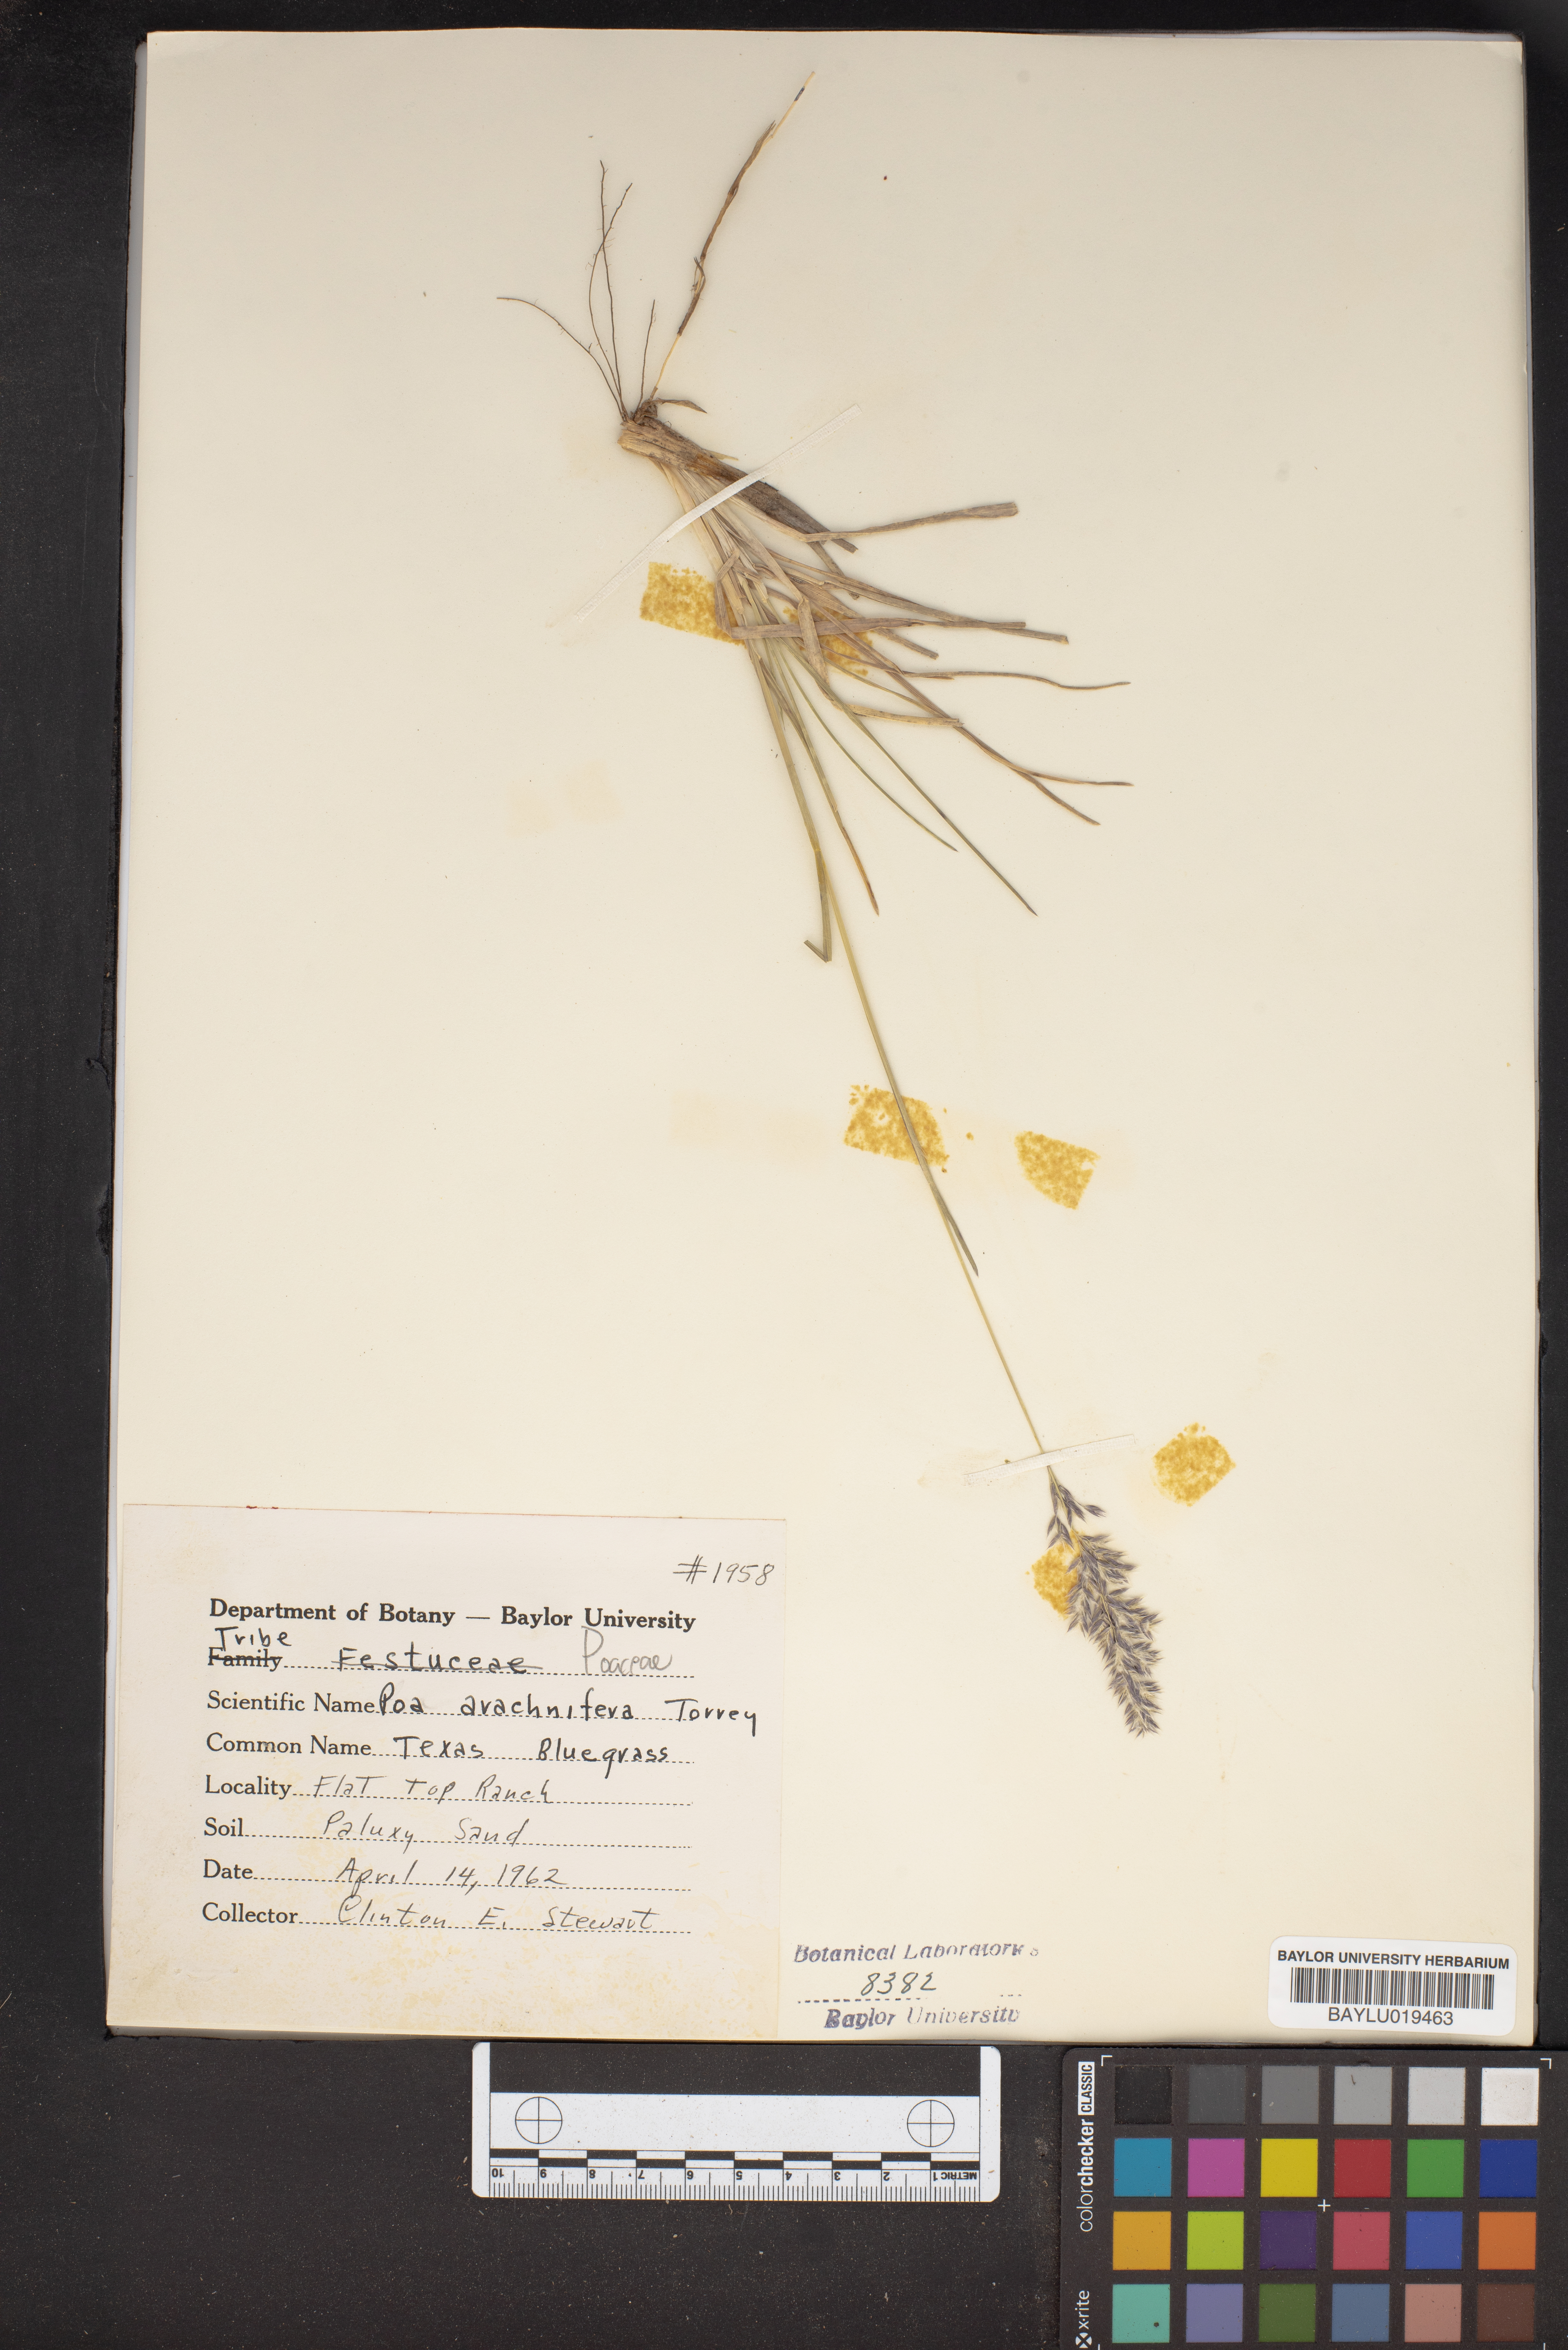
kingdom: Plantae
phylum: Tracheophyta
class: Liliopsida
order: Poales
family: Poaceae
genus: Poa
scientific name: Poa arachnifera
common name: Texas bluegrass
